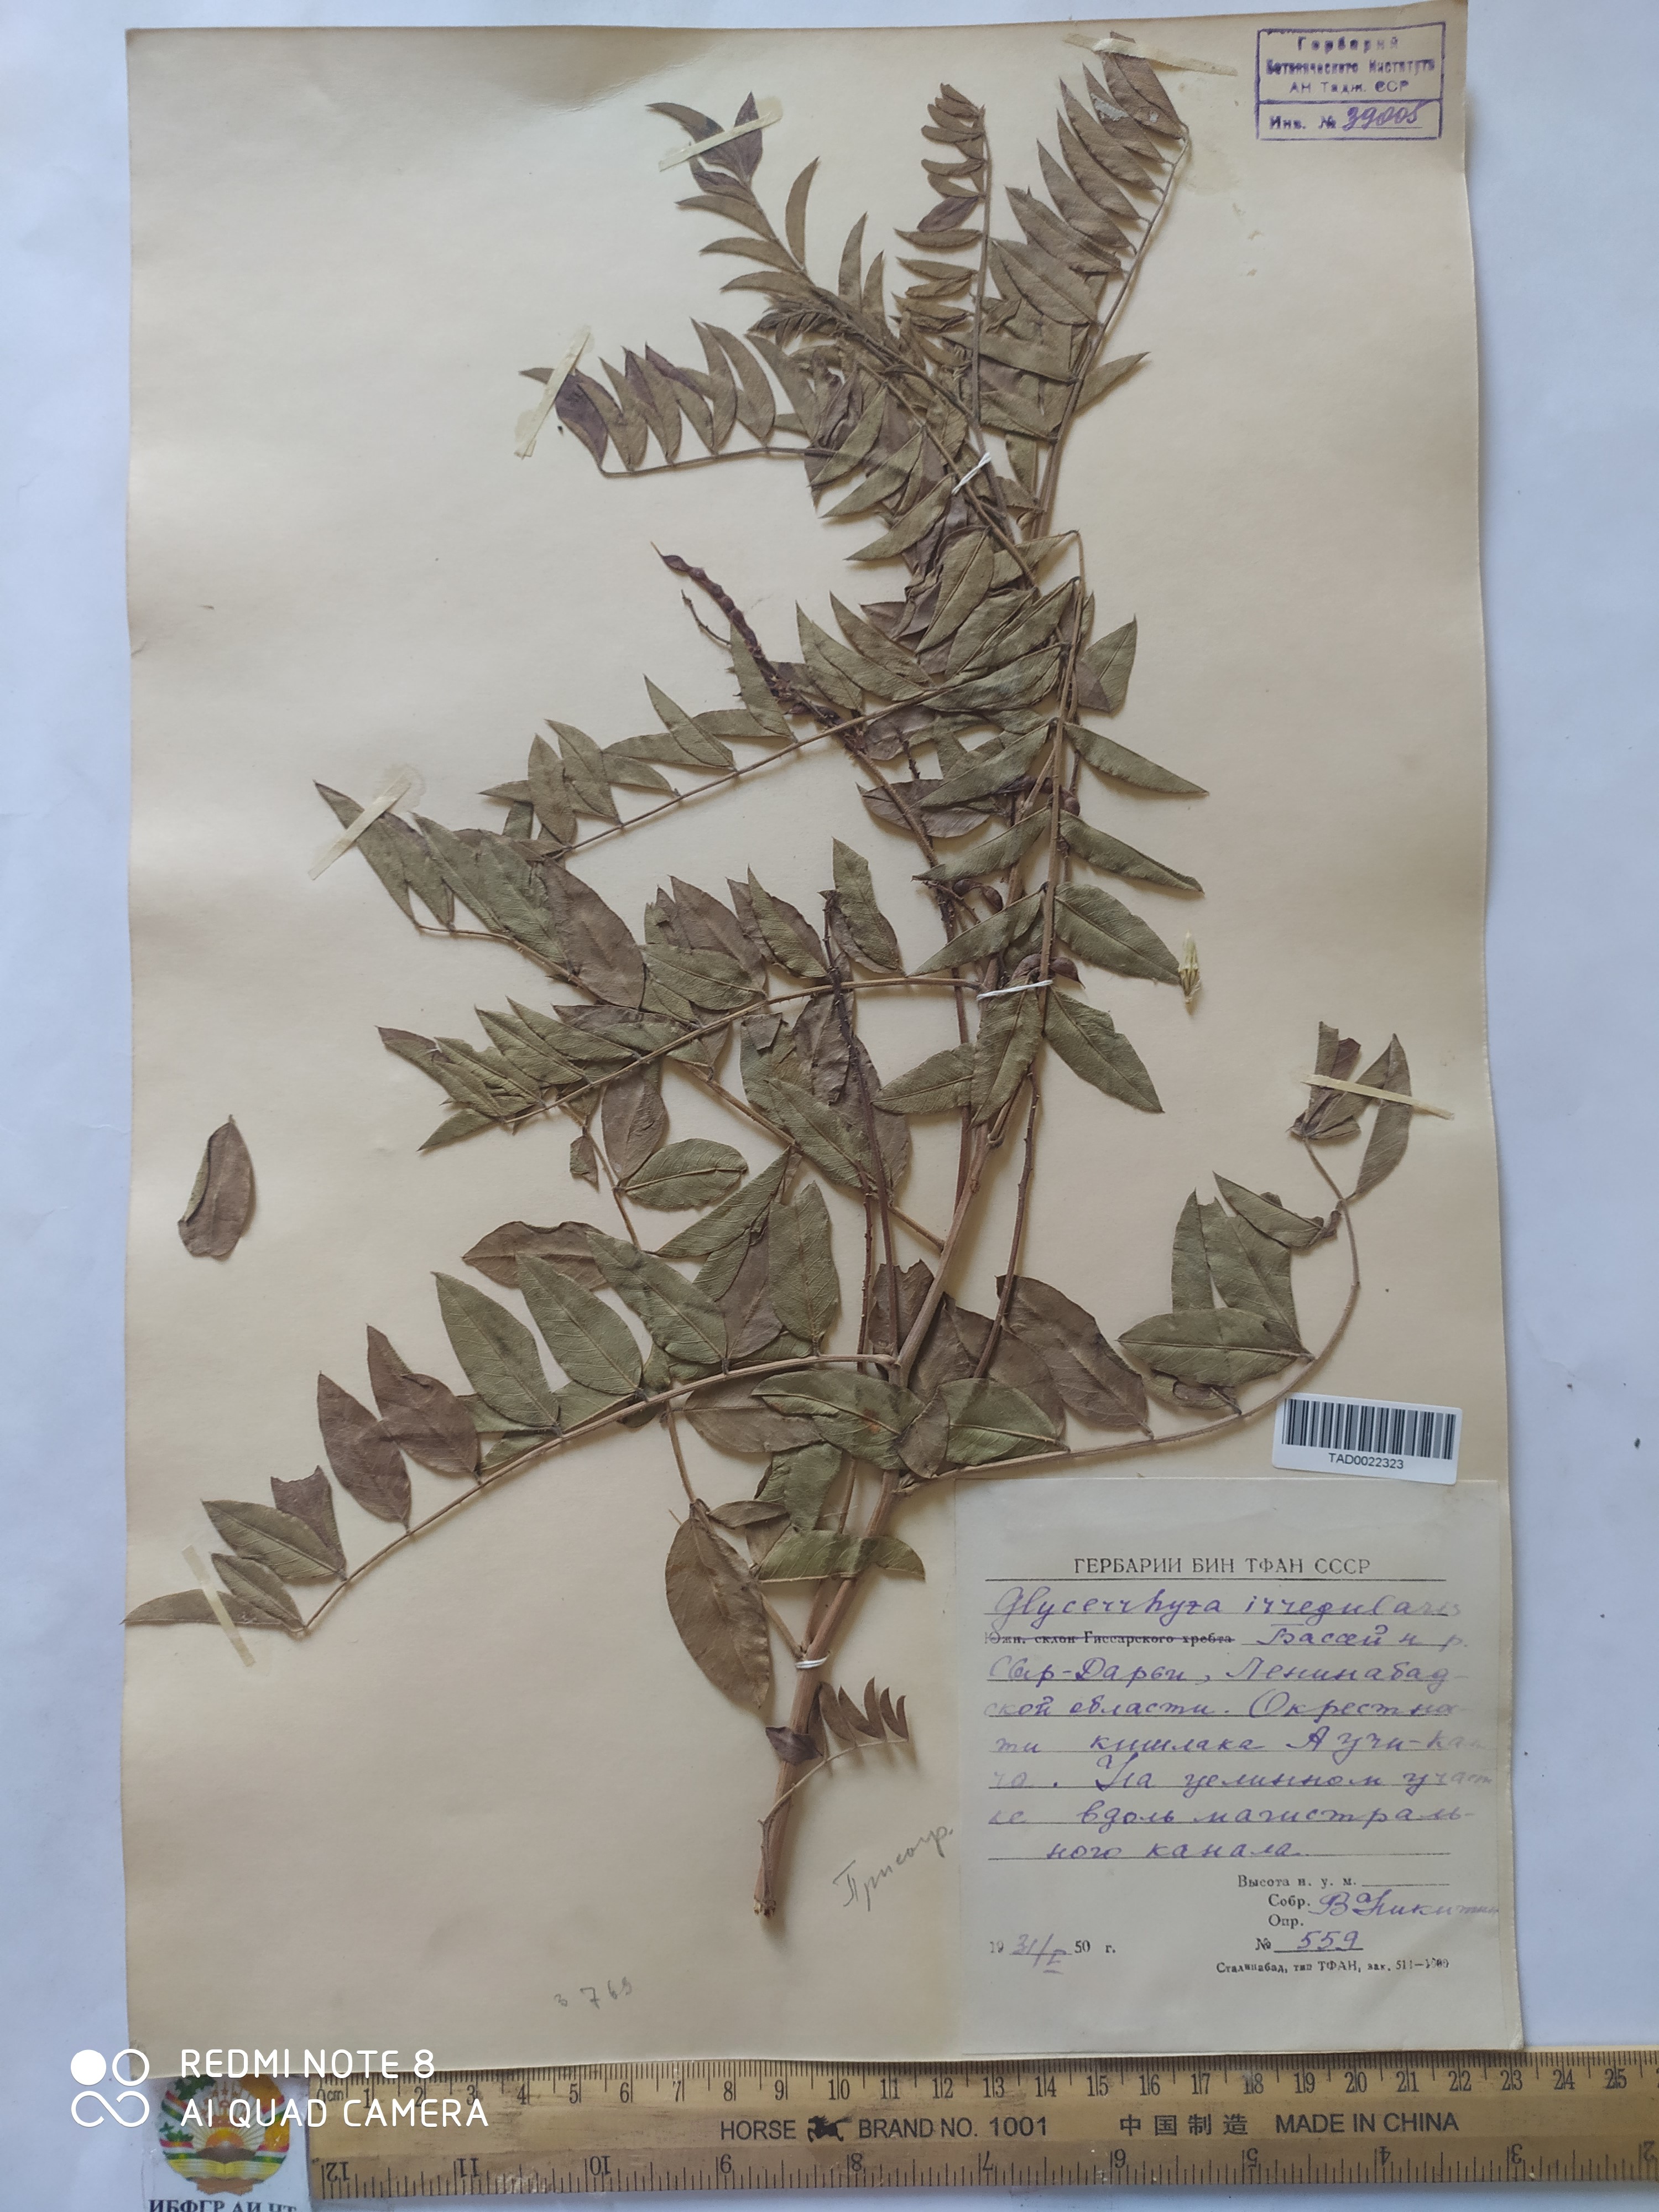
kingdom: Plantae
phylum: Tracheophyta
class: Magnoliopsida
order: Fabales
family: Fabaceae
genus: Glycyrrhiza
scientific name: Glycyrrhiza uralensis
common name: Chinese licorice
